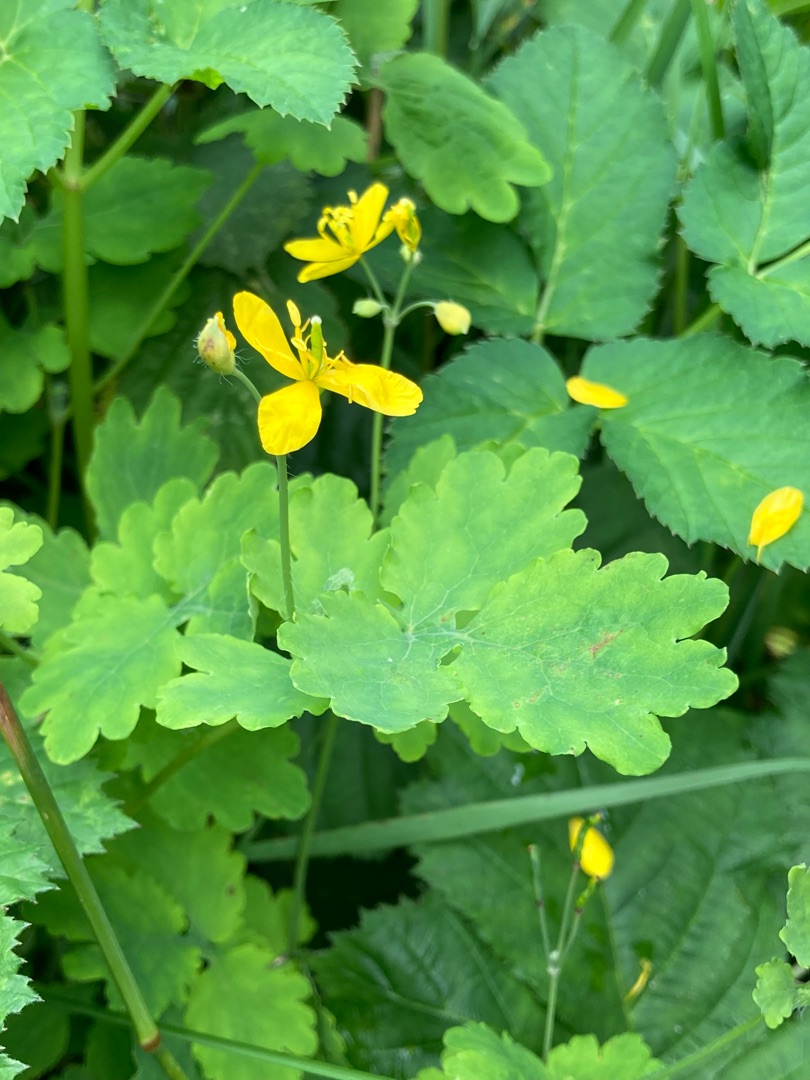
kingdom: Plantae
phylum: Tracheophyta
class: Magnoliopsida
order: Ranunculales
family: Papaveraceae
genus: Chelidonium
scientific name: Chelidonium majus
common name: Svaleurt
